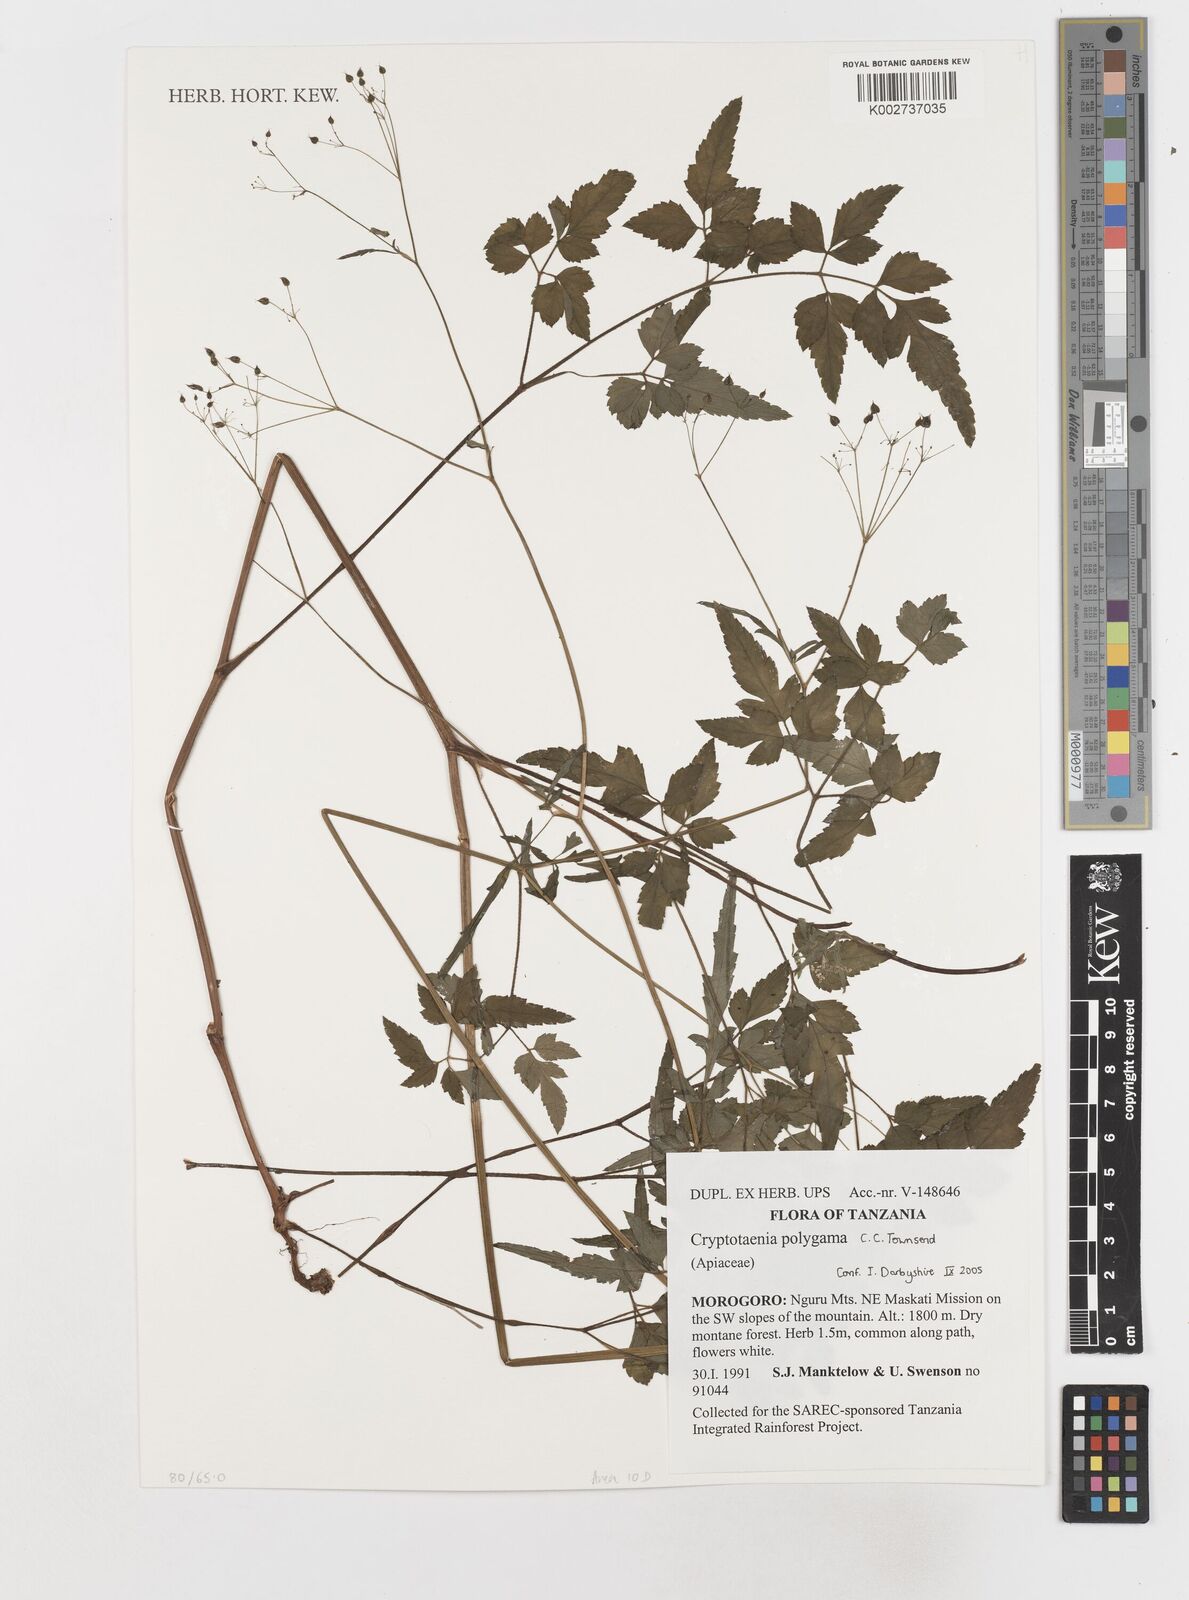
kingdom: Plantae
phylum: Tracheophyta
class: Magnoliopsida
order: Apiales
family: Apiaceae
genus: Cryptotaenia
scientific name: Cryptotaenia polygama
